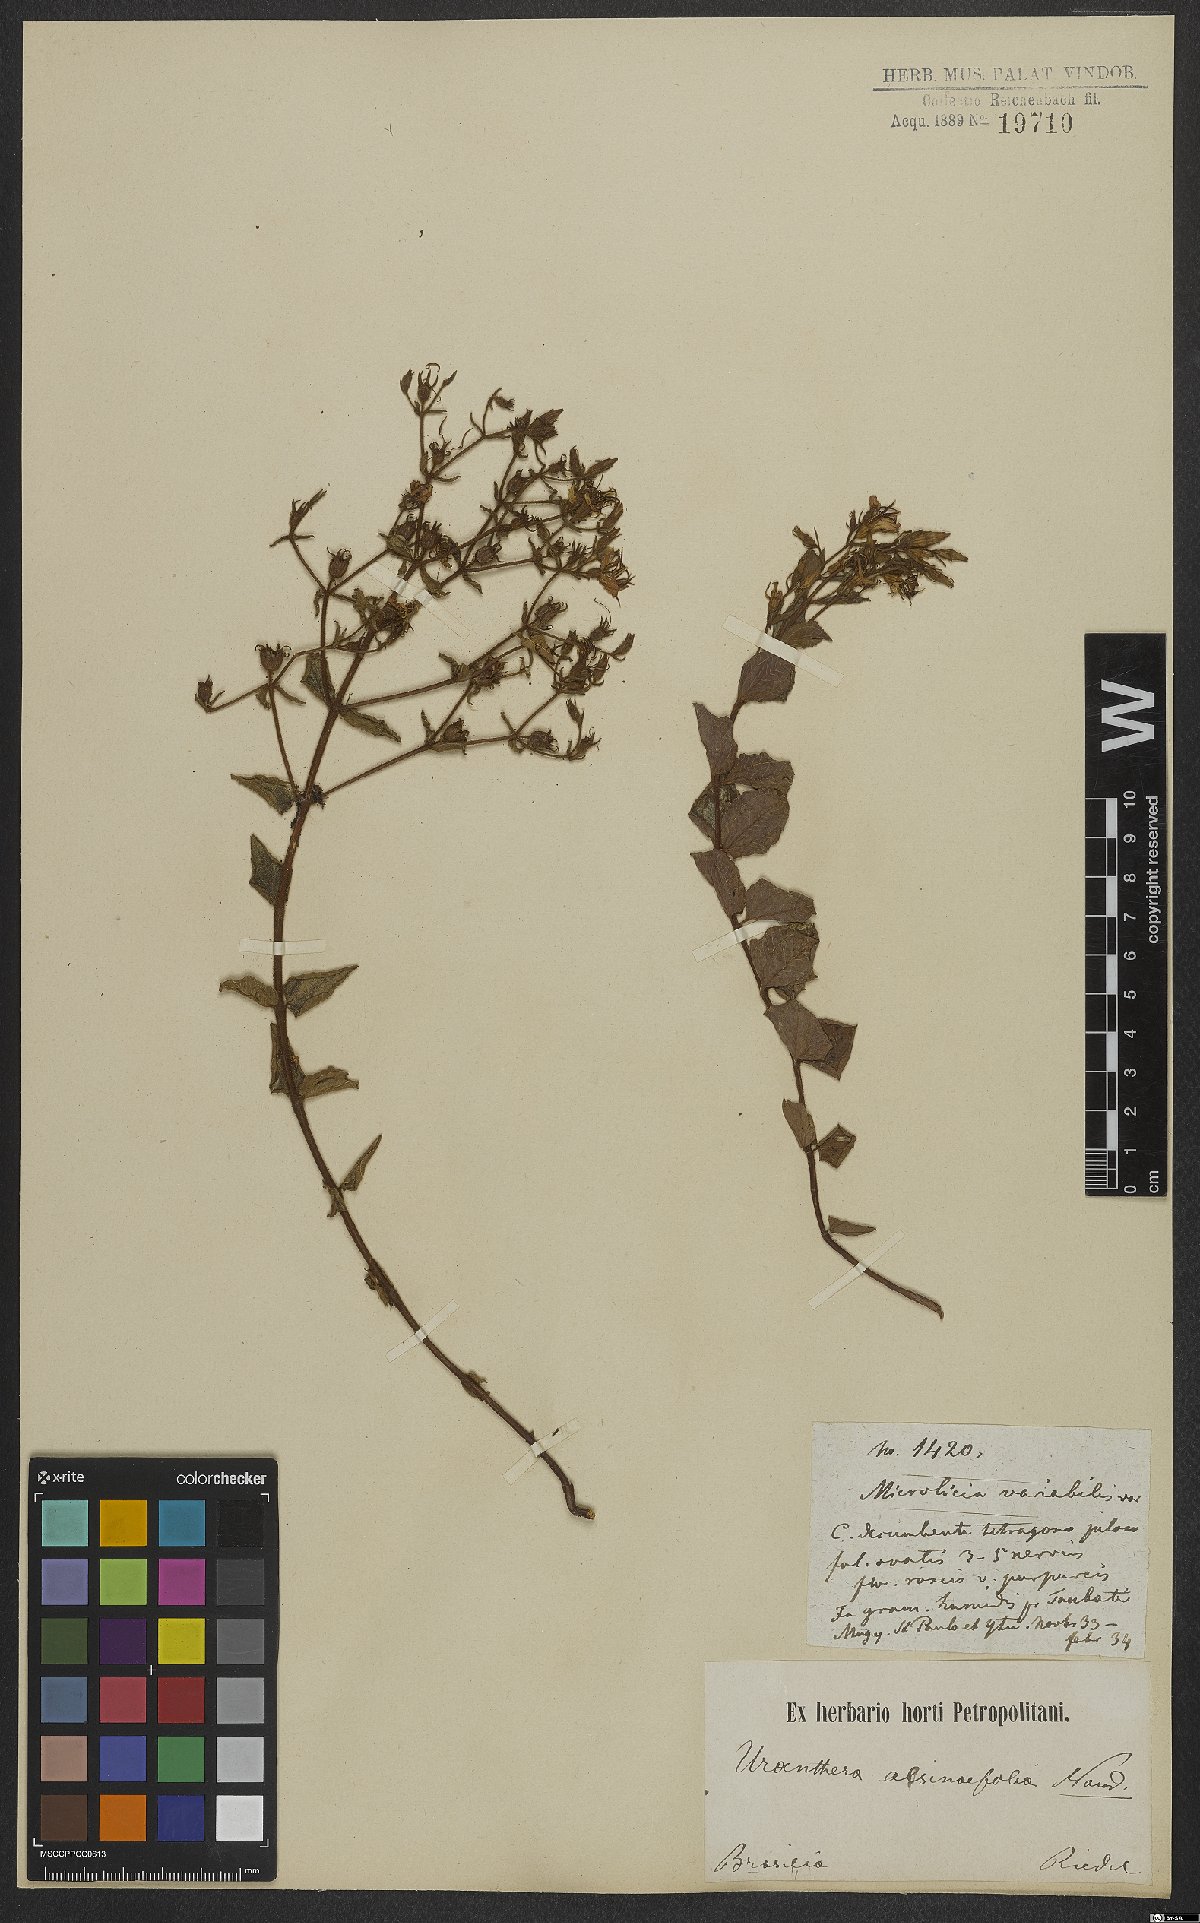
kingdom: Plantae
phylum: Tracheophyta
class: Magnoliopsida
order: Myrtales
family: Melastomataceae
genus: Acisanthera
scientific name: Acisanthera alsinefolia
